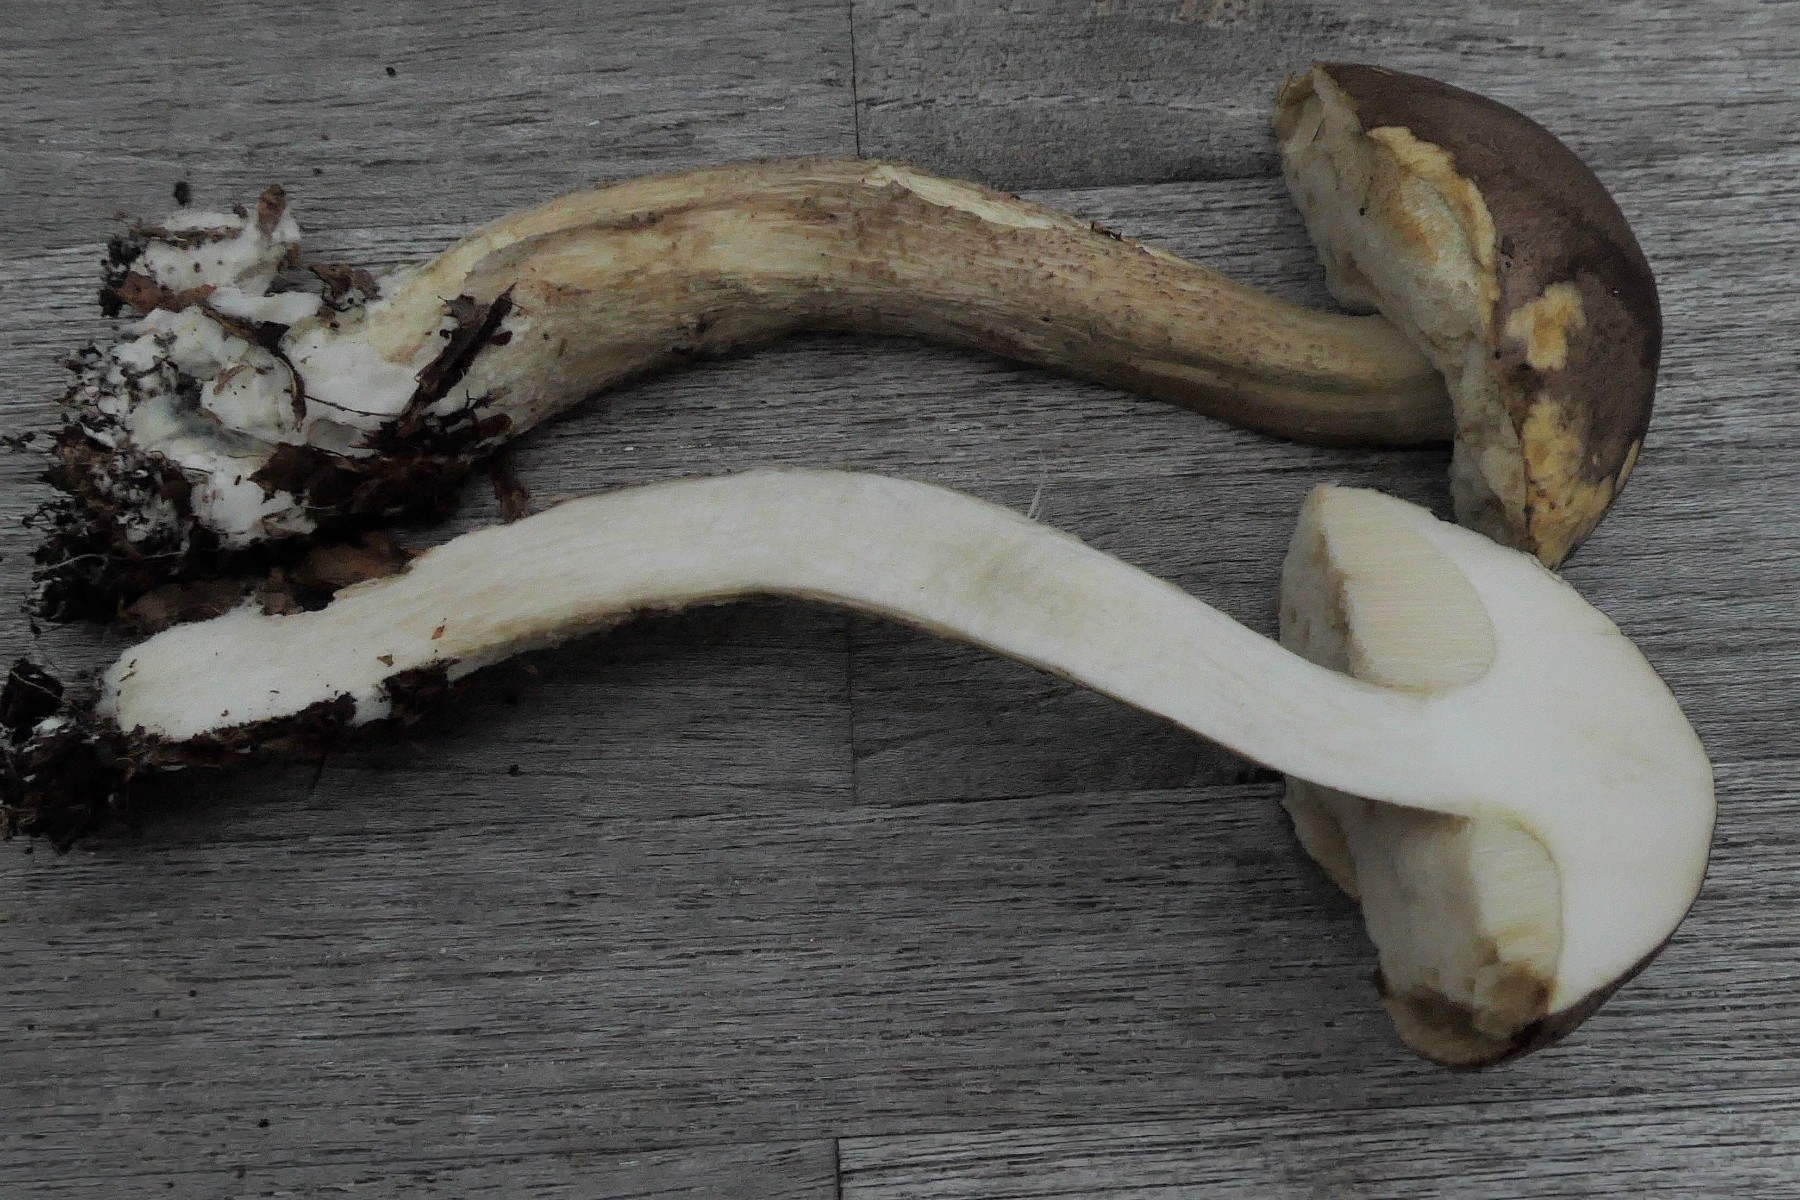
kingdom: Fungi
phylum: Basidiomycota
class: Agaricomycetes
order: Boletales
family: Boletaceae
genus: Leccinum
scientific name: Leccinum scabrum
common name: brun skælrørhat
